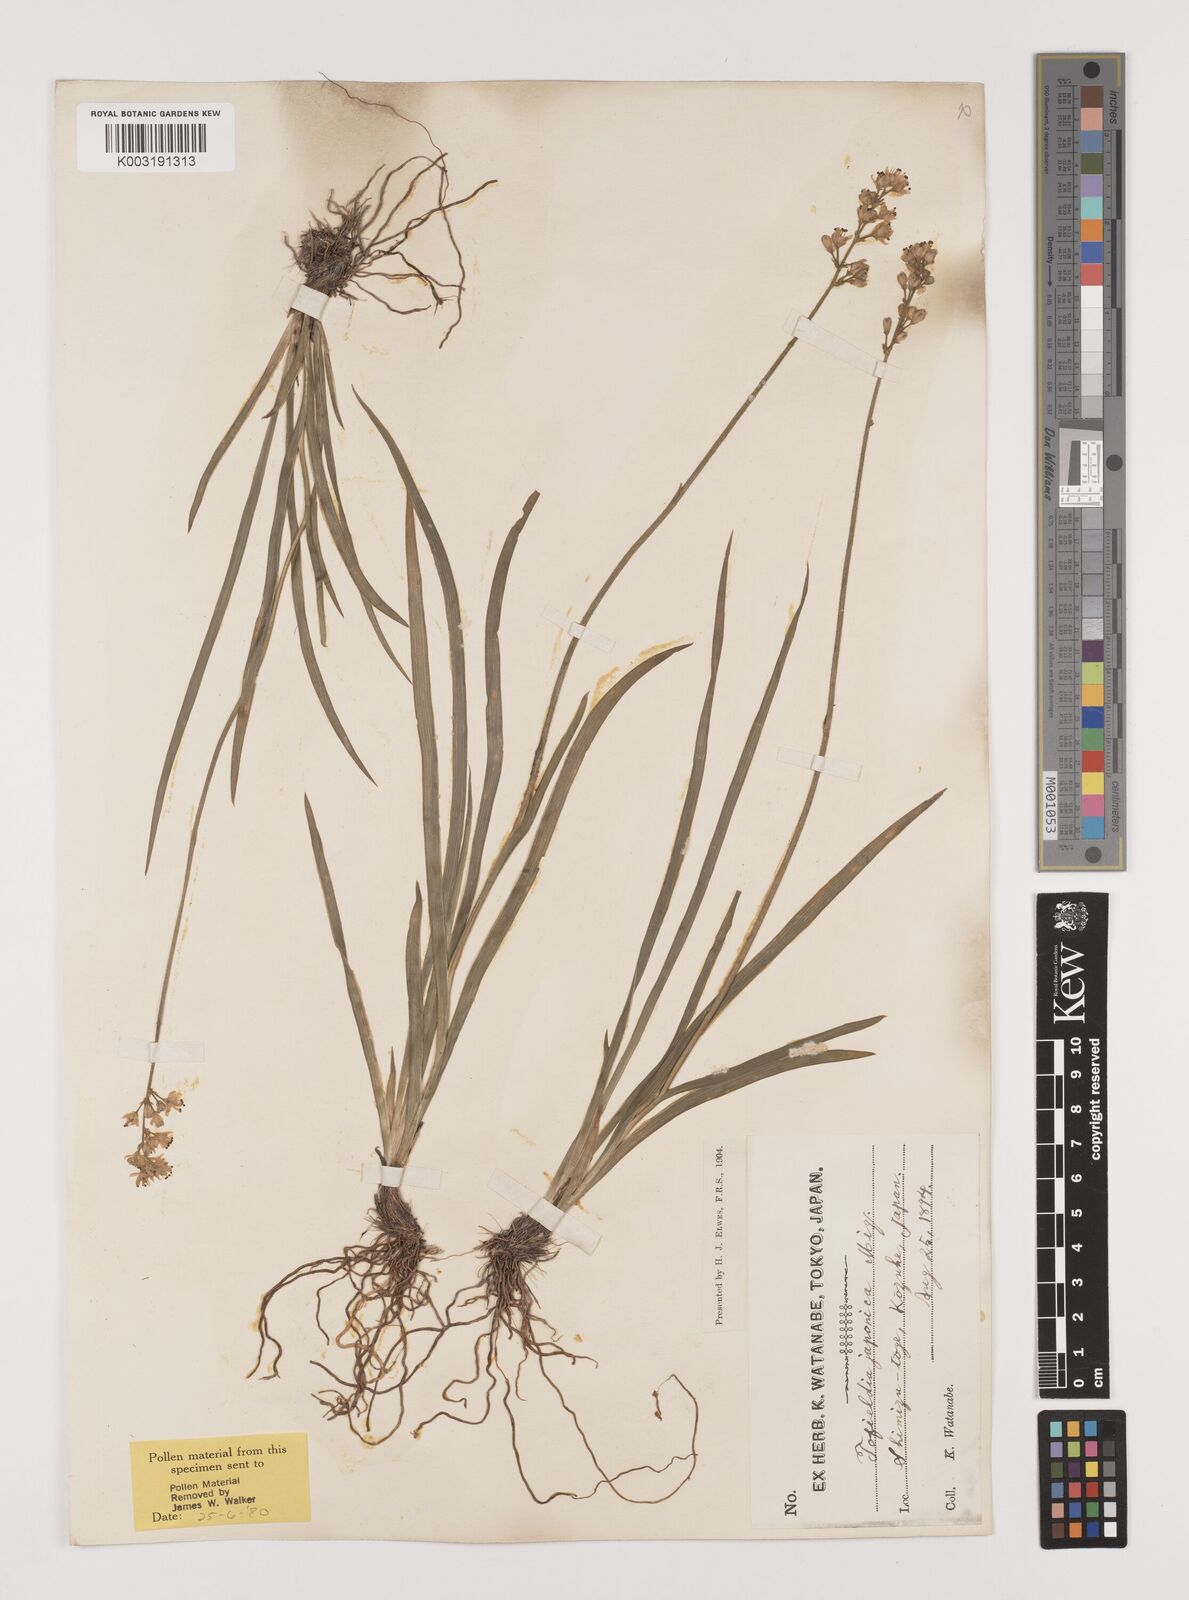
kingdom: Plantae
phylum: Tracheophyta
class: Liliopsida
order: Alismatales
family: Tofieldiaceae
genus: Triantha
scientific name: Triantha japonica
